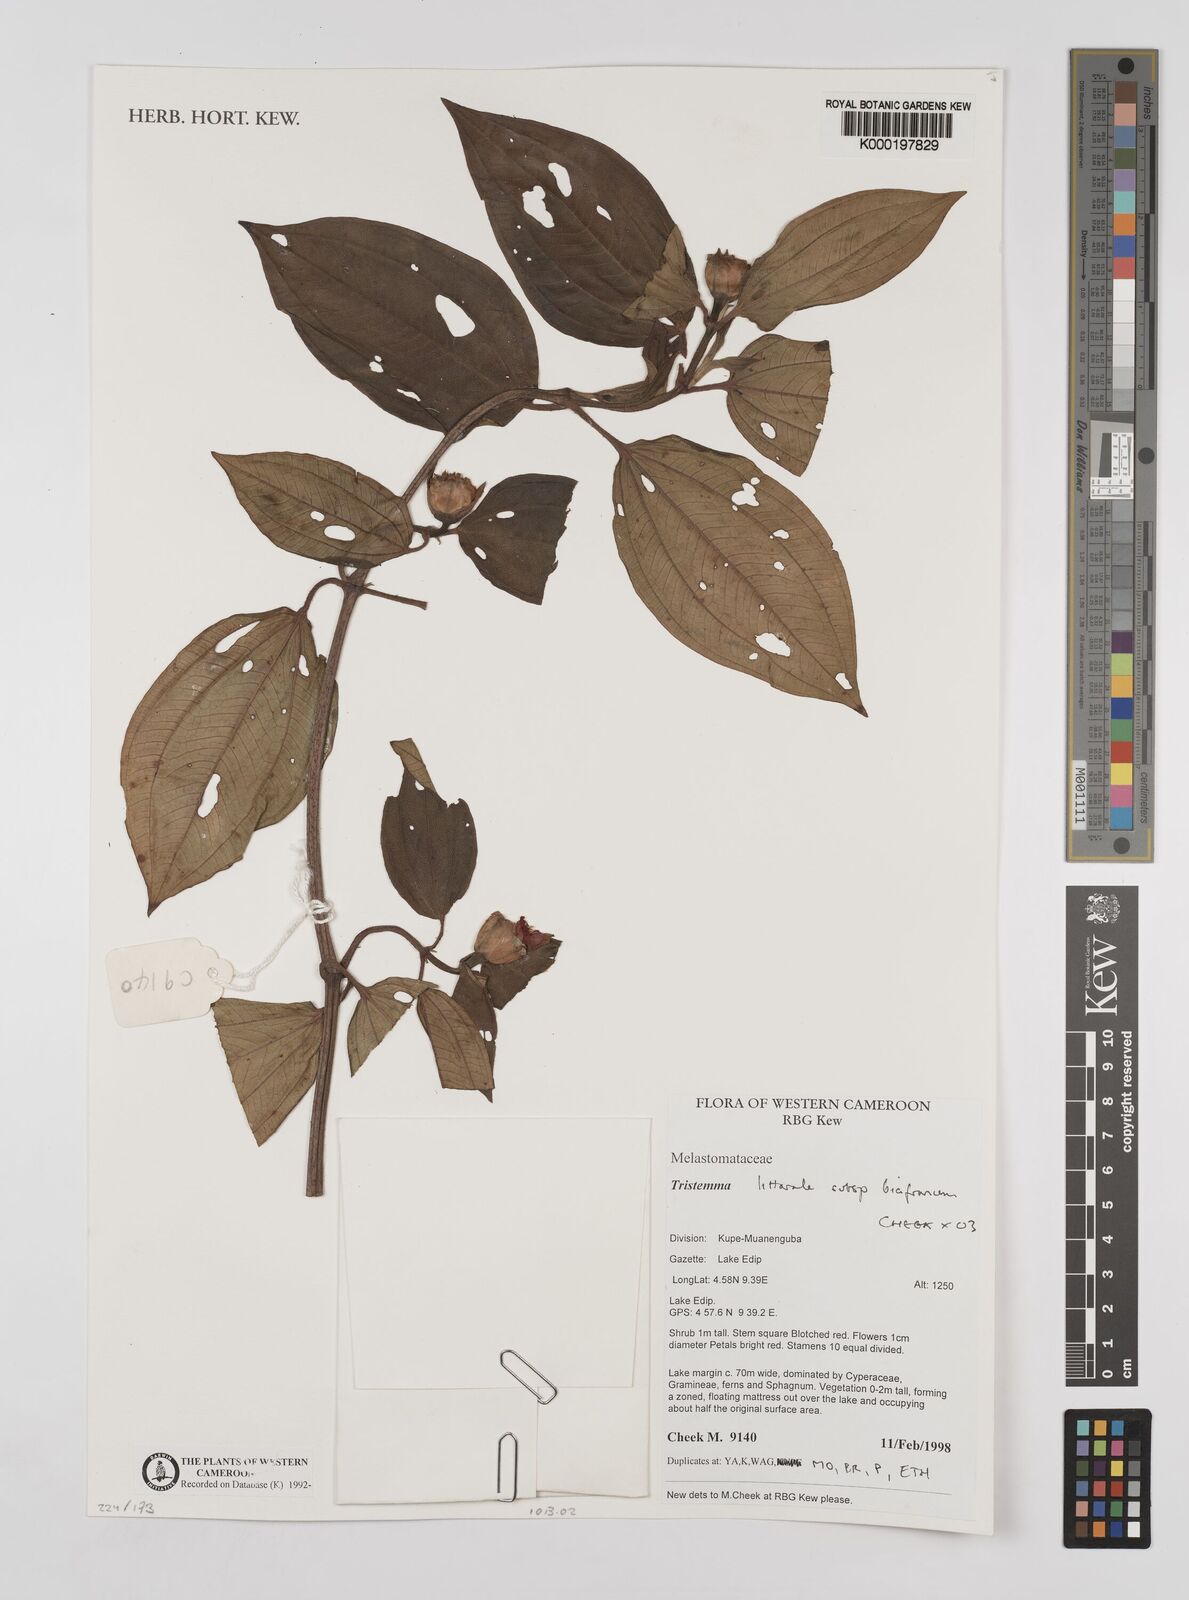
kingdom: Plantae
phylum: Tracheophyta
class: Magnoliopsida
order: Myrtales
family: Melastomataceae
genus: Tristemma
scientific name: Tristemma littorale
